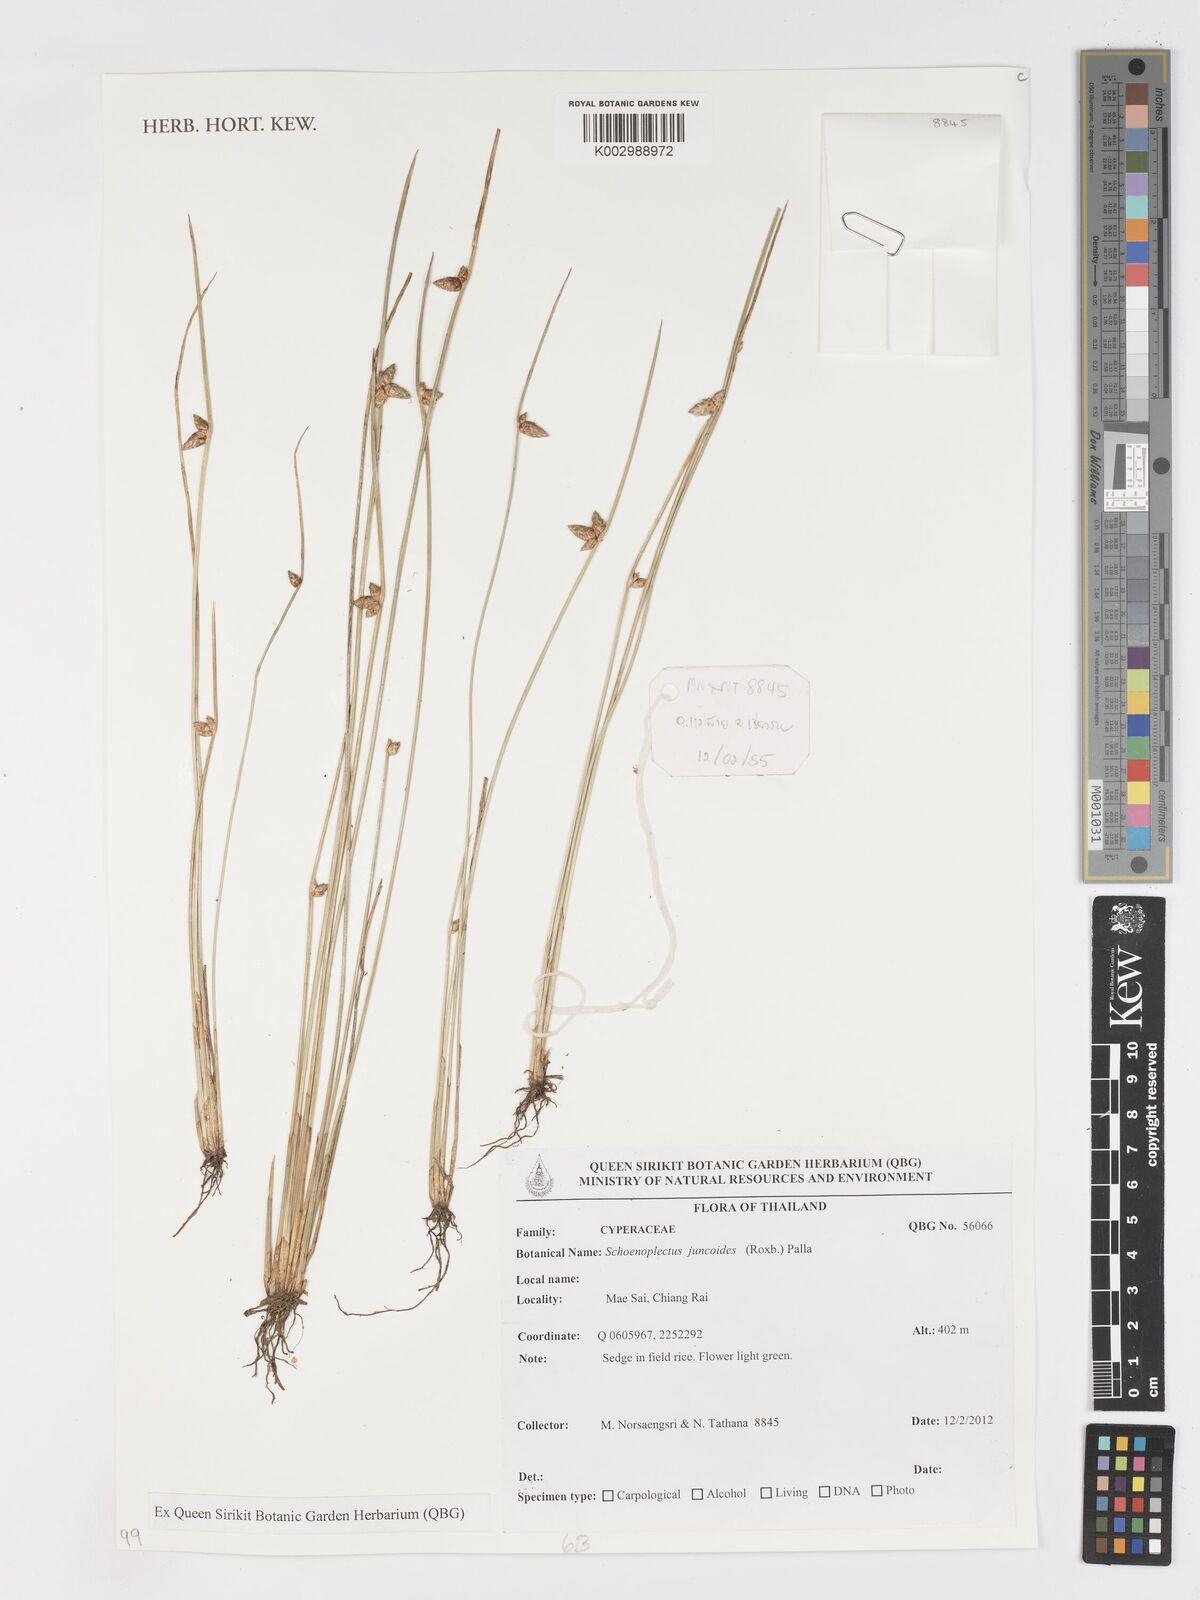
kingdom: Plantae
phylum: Tracheophyta
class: Liliopsida
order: Poales
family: Cyperaceae
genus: Schoenoplectiella
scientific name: Schoenoplectiella juncoides
